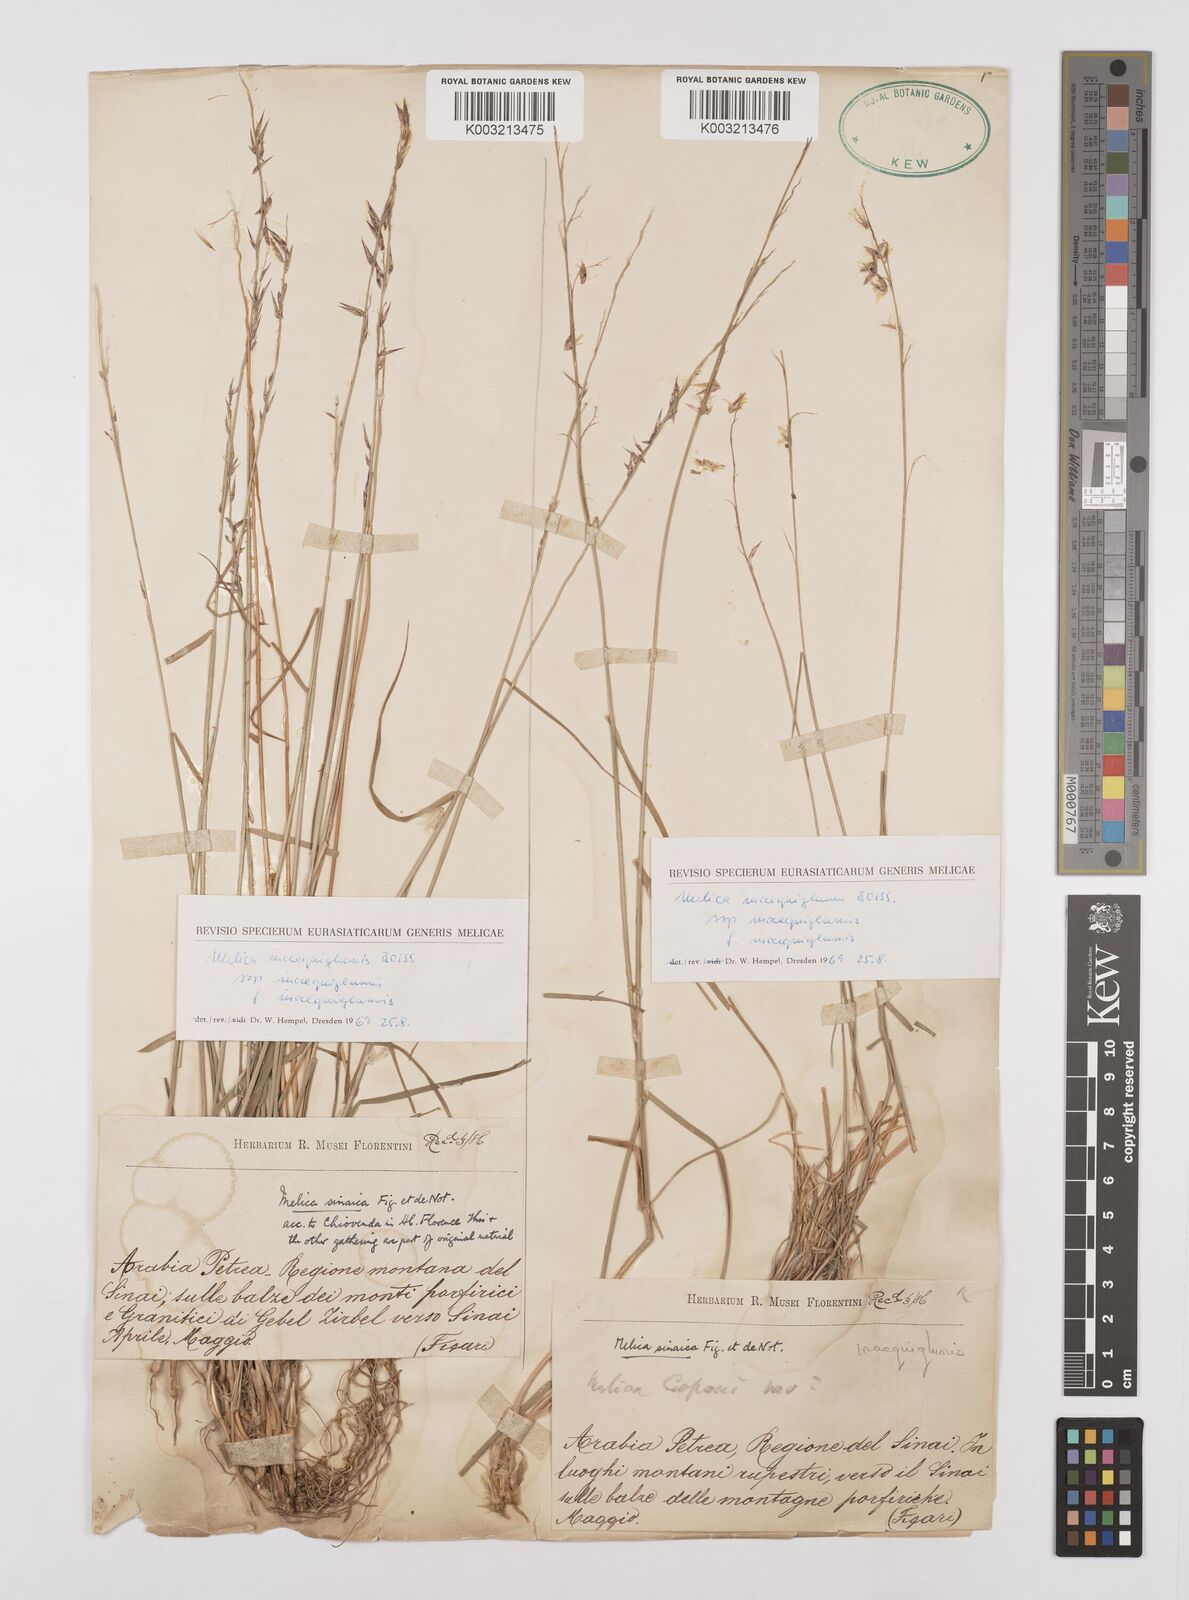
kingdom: Plantae
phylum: Tracheophyta
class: Liliopsida
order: Poales
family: Poaceae
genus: Melica
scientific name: Melica persica
